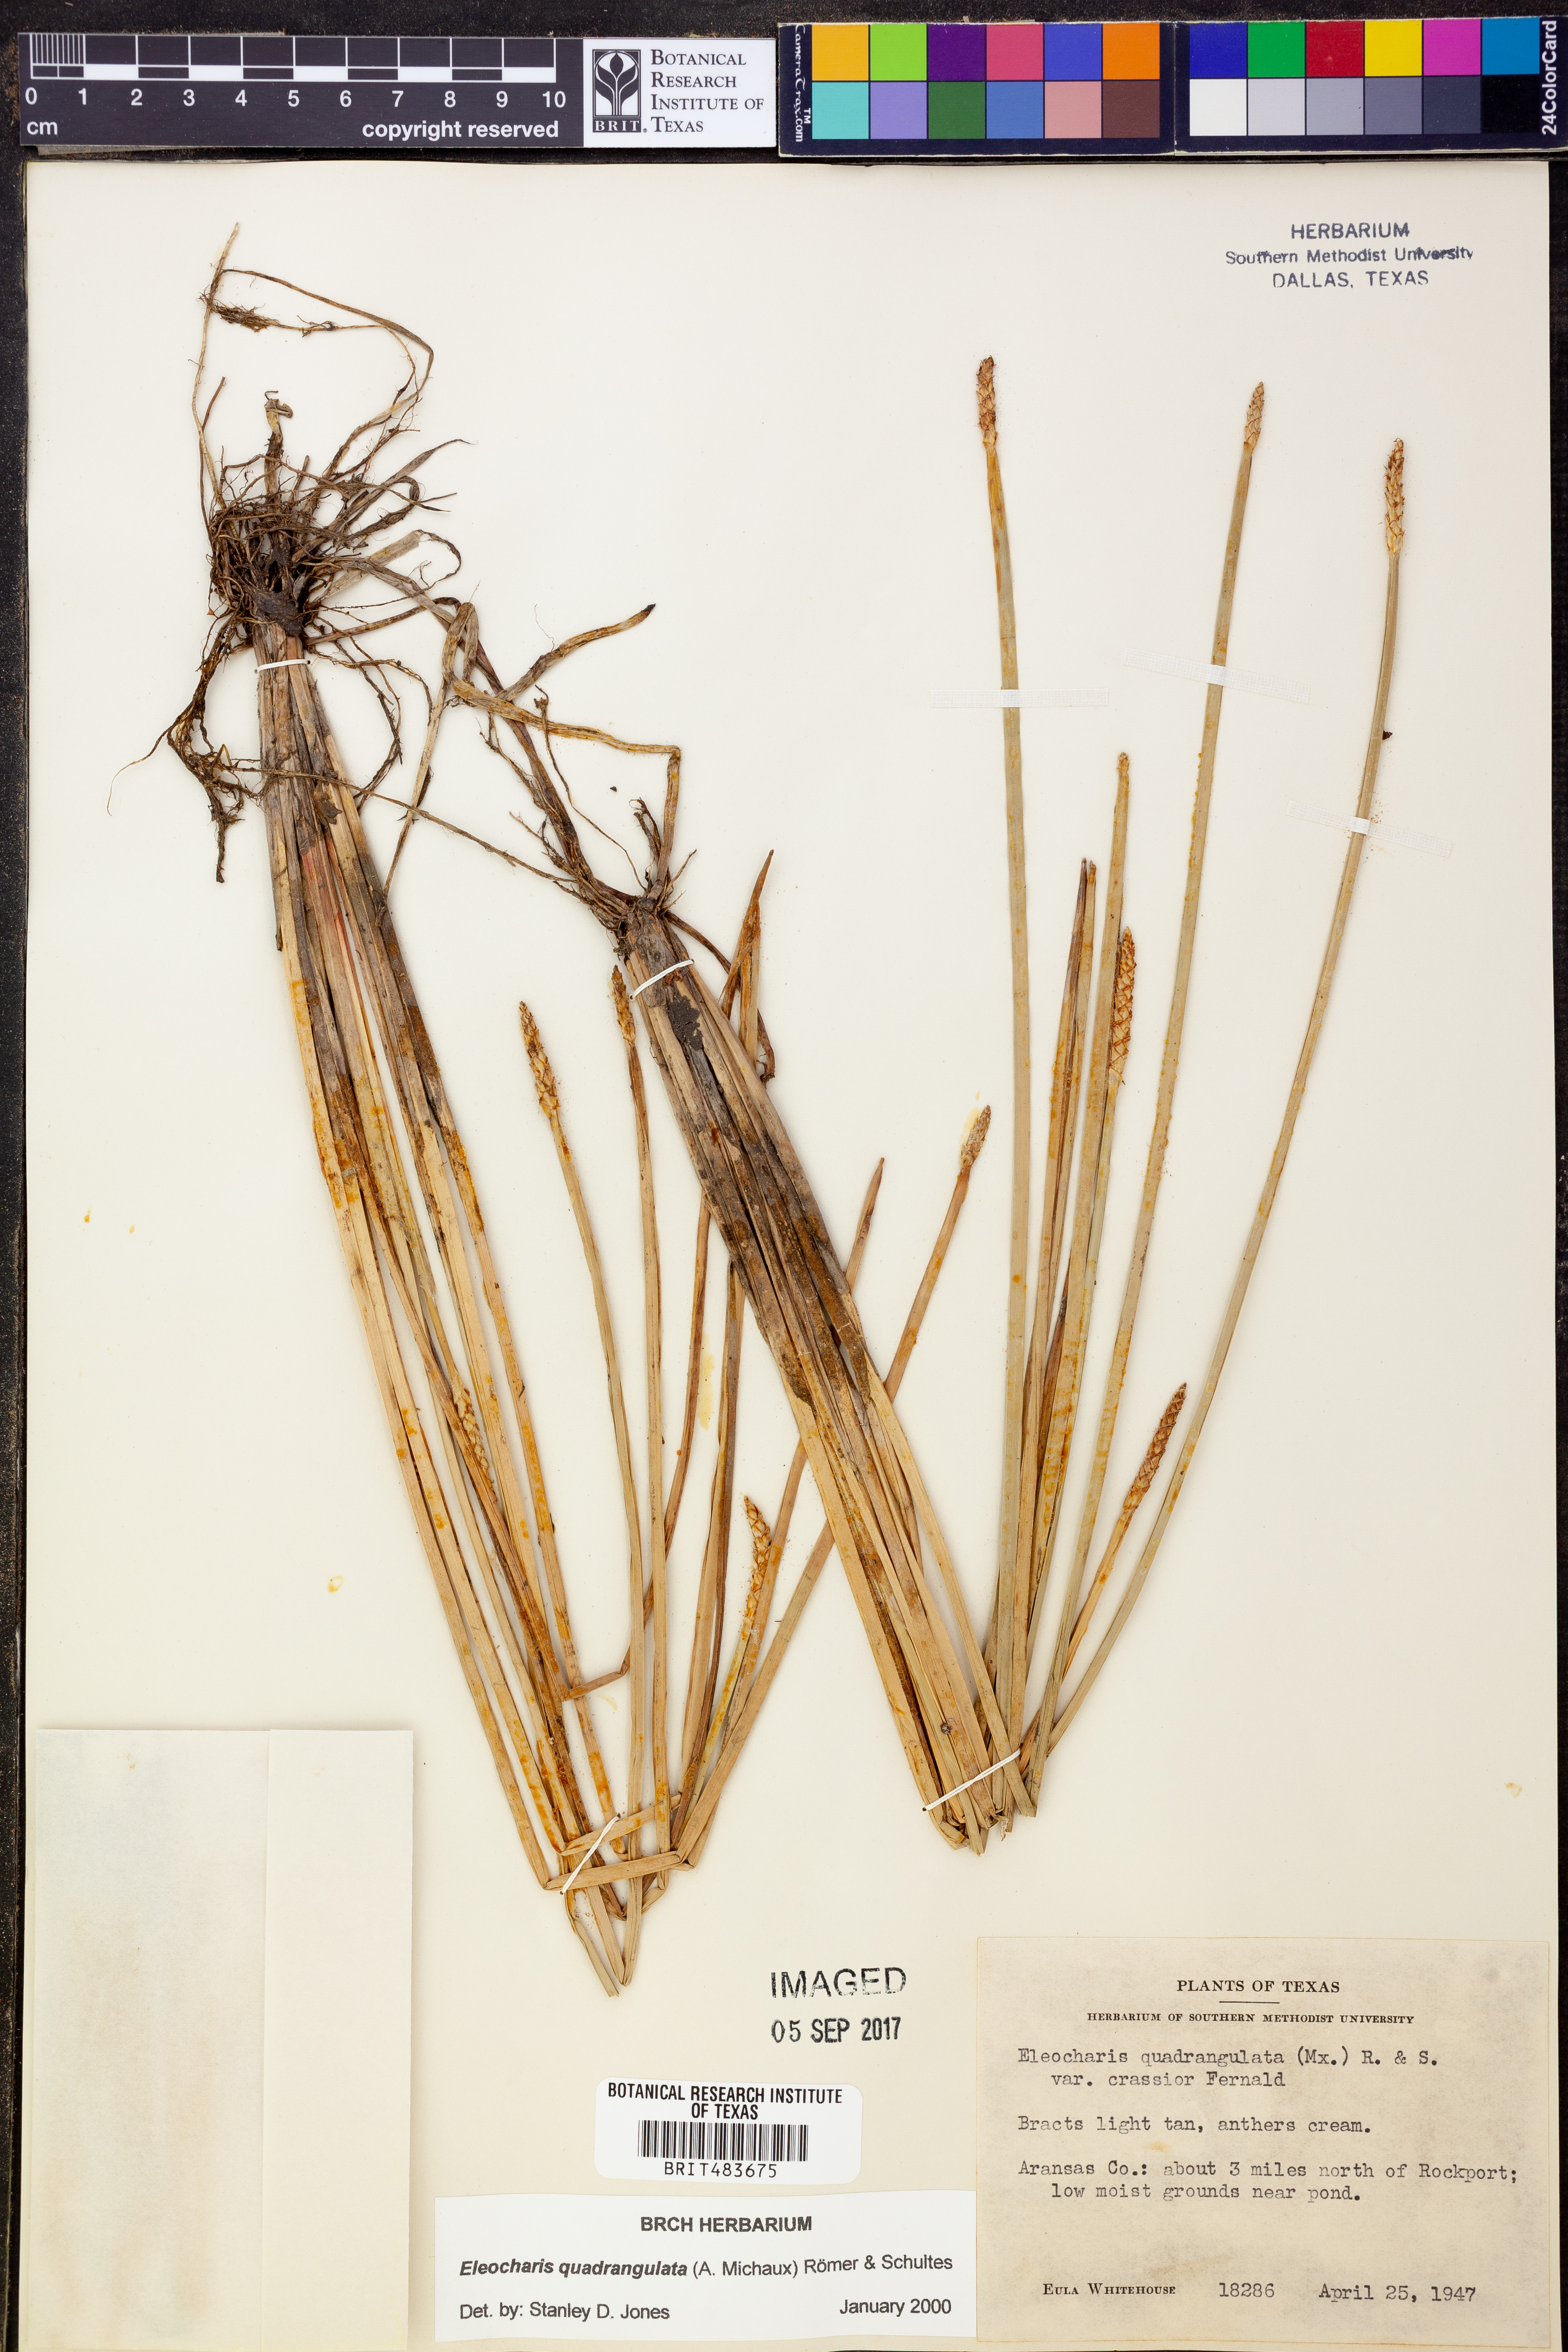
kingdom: Plantae
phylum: Tracheophyta
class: Liliopsida
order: Poales
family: Cyperaceae
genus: Eleocharis
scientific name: Eleocharis quadrangulata
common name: Square-stem spike-rush
